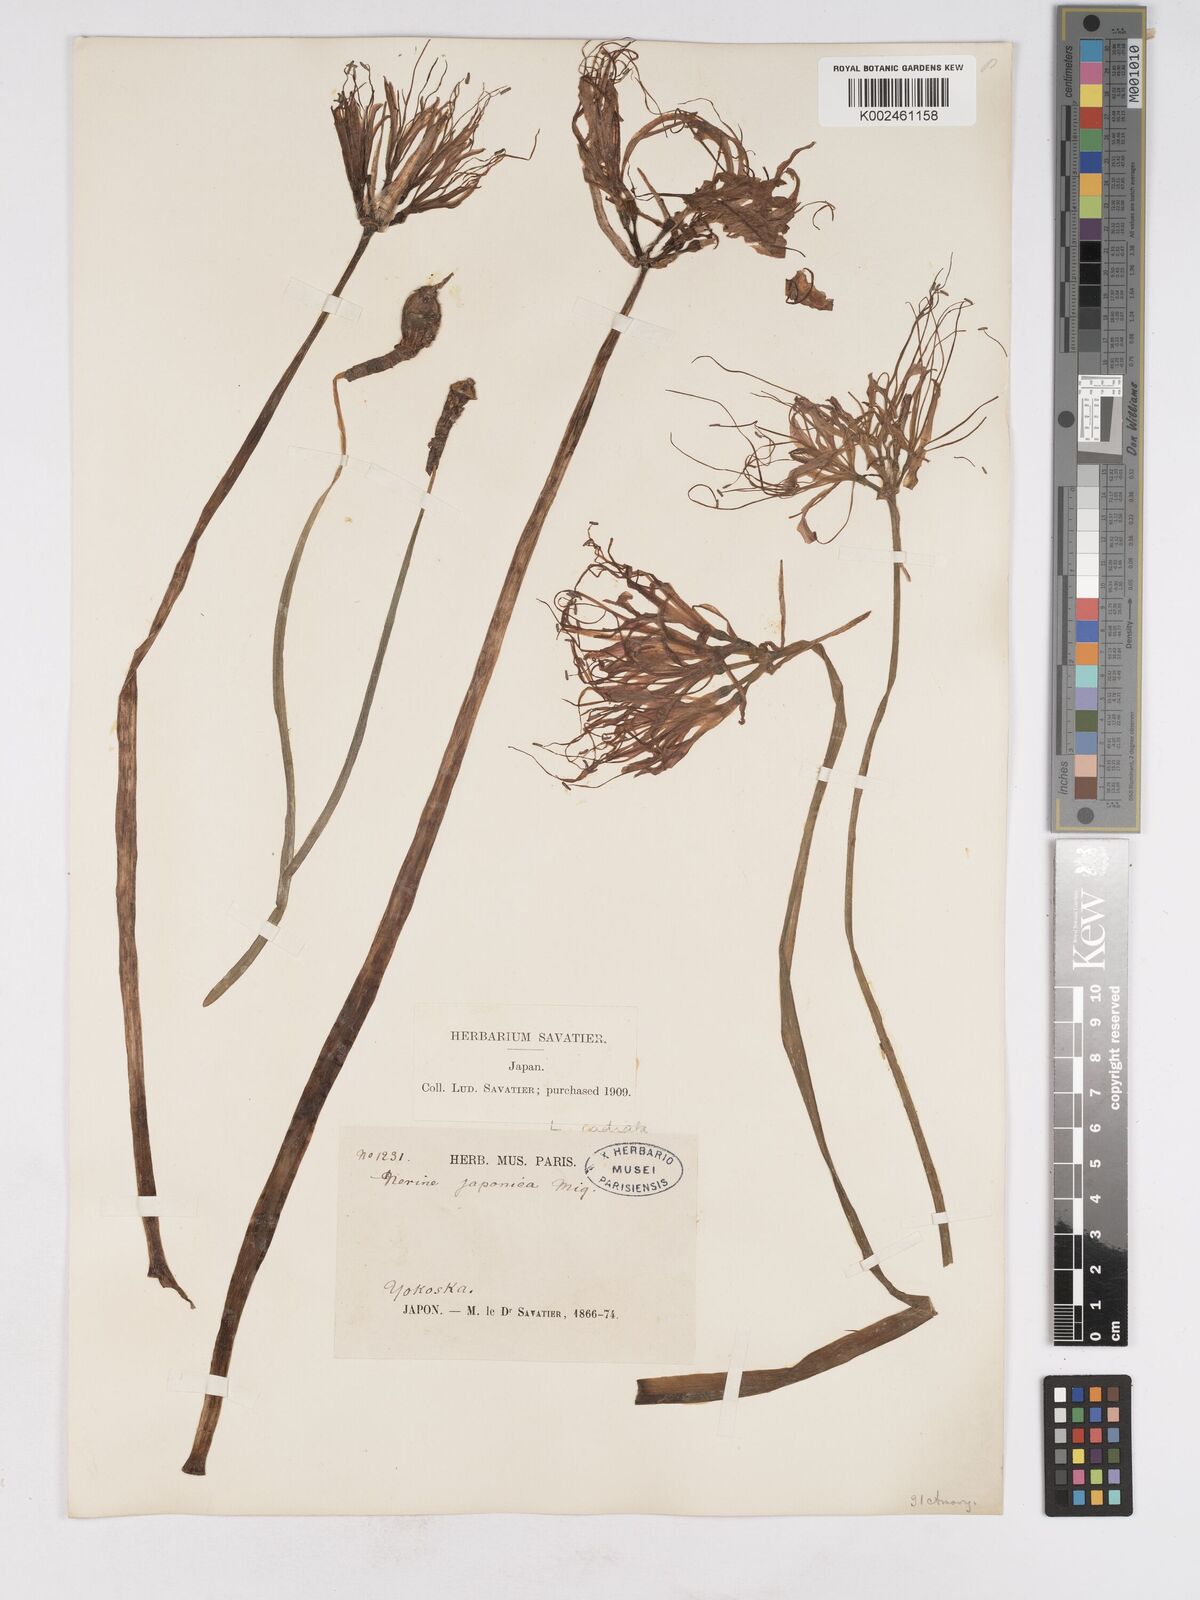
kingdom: Plantae
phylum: Tracheophyta
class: Liliopsida
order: Asparagales
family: Amaryllidaceae
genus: Lycoris
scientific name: Lycoris radiata
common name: Red spider lily
